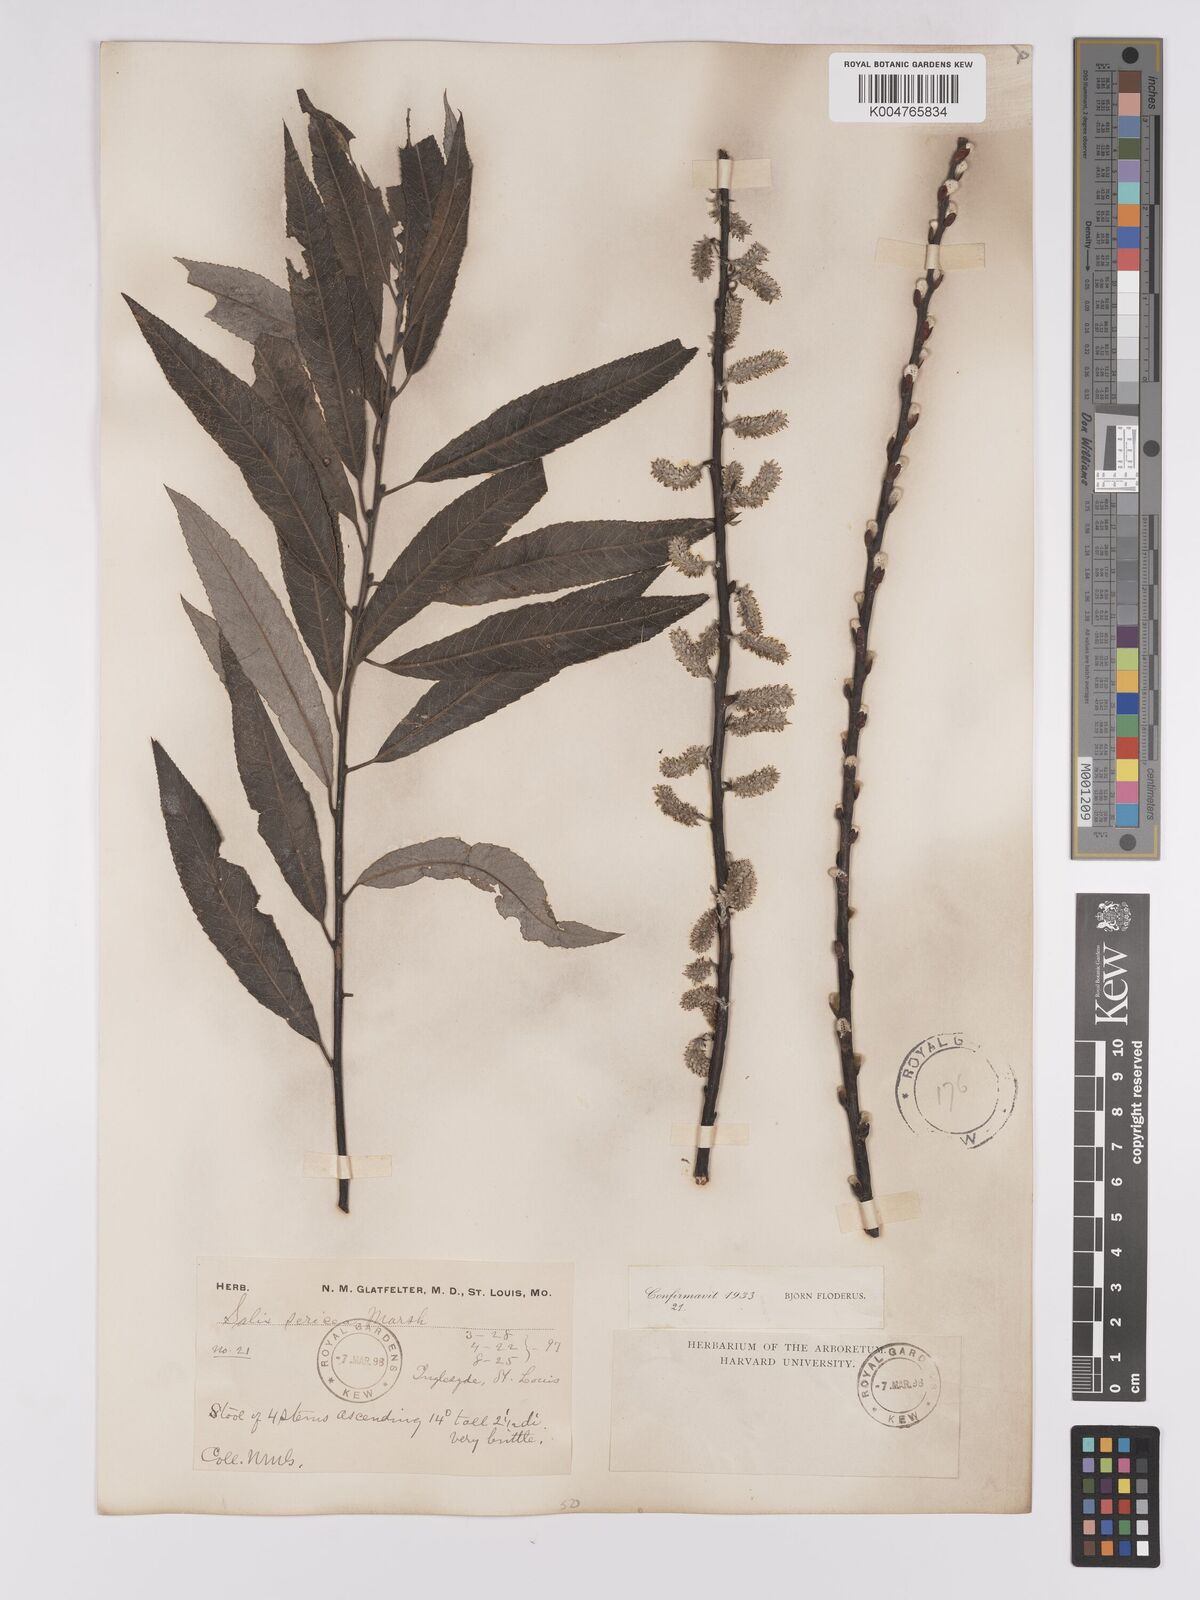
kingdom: Plantae
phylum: Tracheophyta
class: Magnoliopsida
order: Malpighiales
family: Salicaceae
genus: Salix
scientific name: Salix
